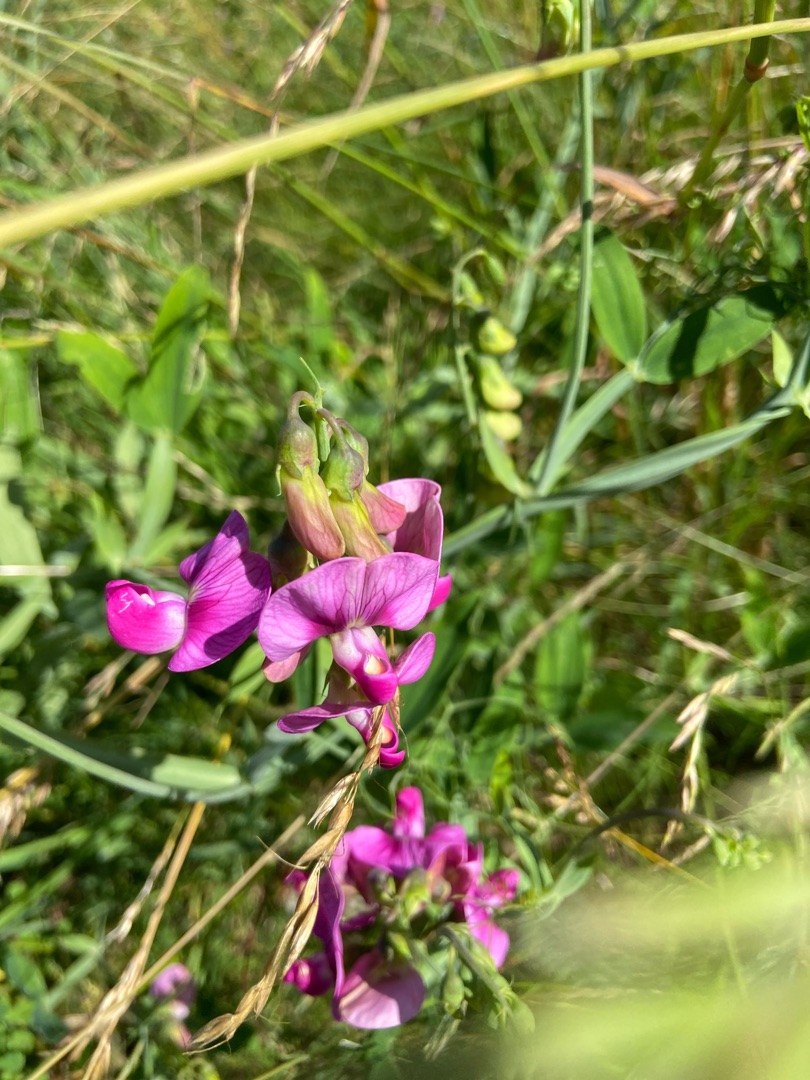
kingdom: Plantae
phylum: Tracheophyta
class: Magnoliopsida
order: Fabales
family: Fabaceae
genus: Lathyrus
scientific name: Lathyrus latifolius
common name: Flerårig ærteblomst
